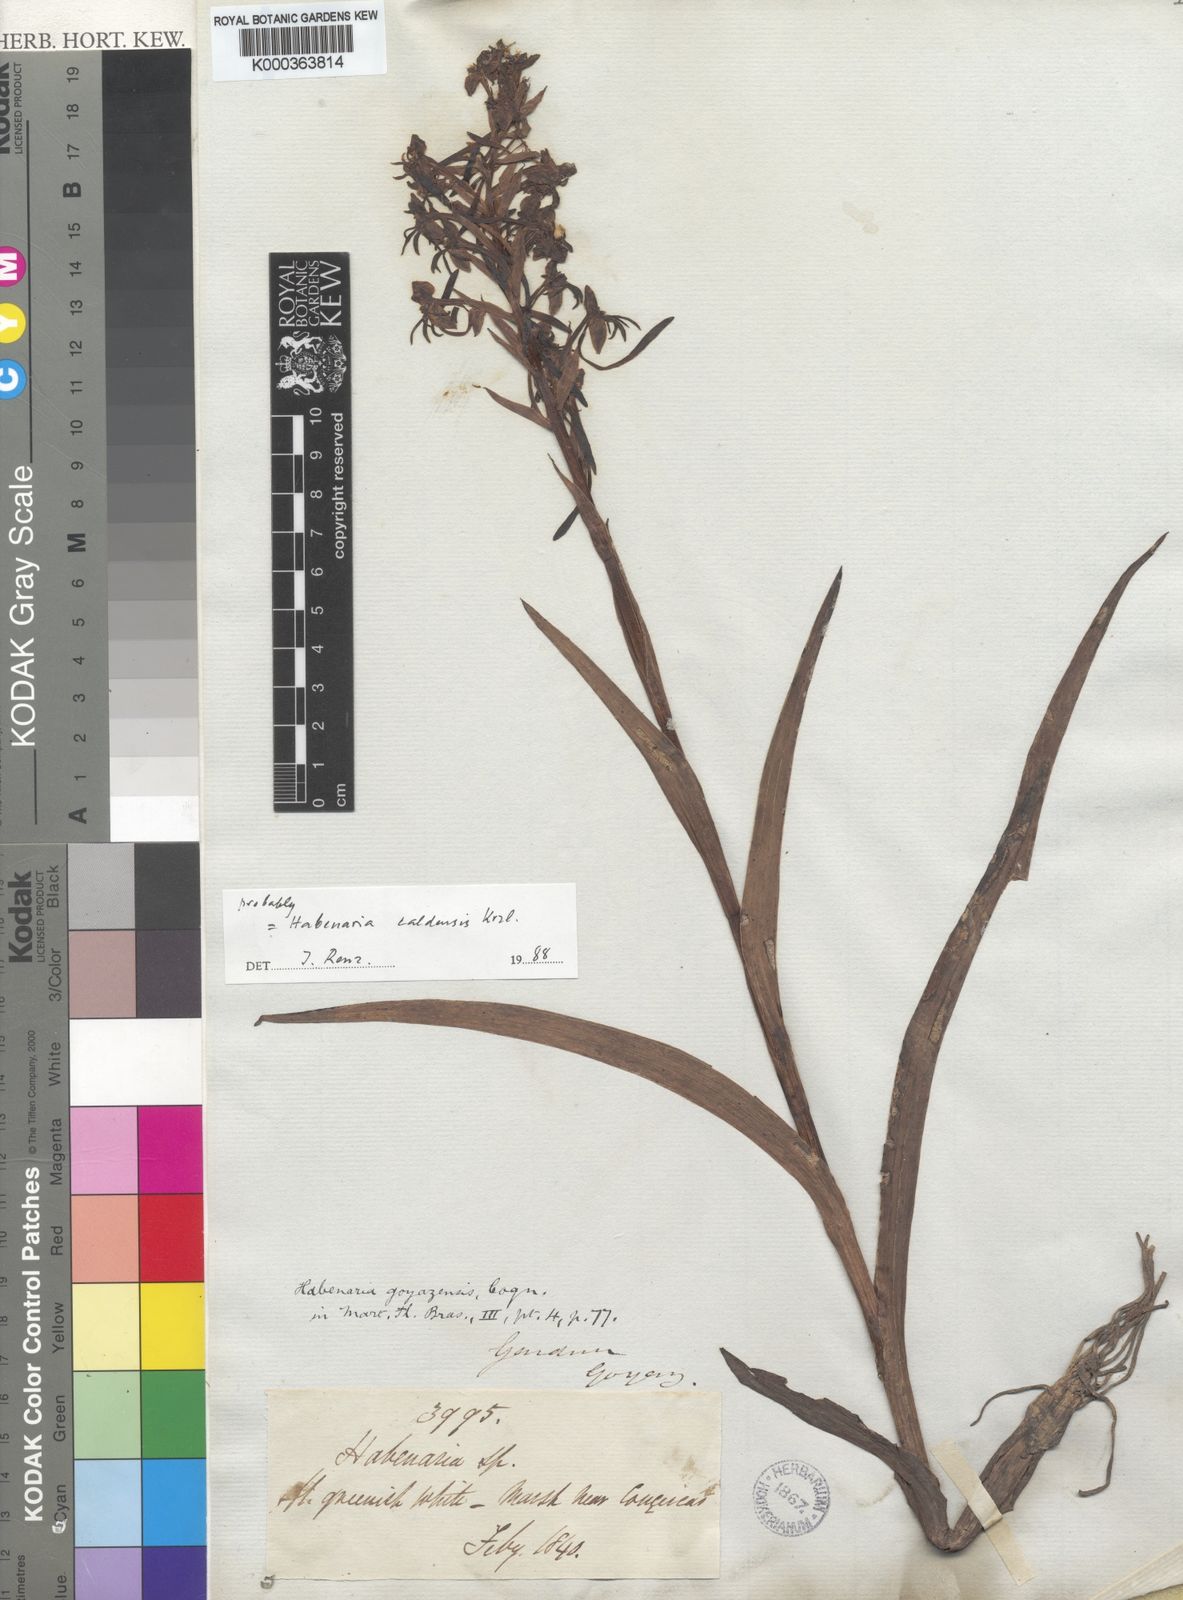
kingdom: Plantae
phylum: Tracheophyta
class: Liliopsida
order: Asparagales
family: Orchidaceae
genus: Habenaria
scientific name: Habenaria goyazensis
